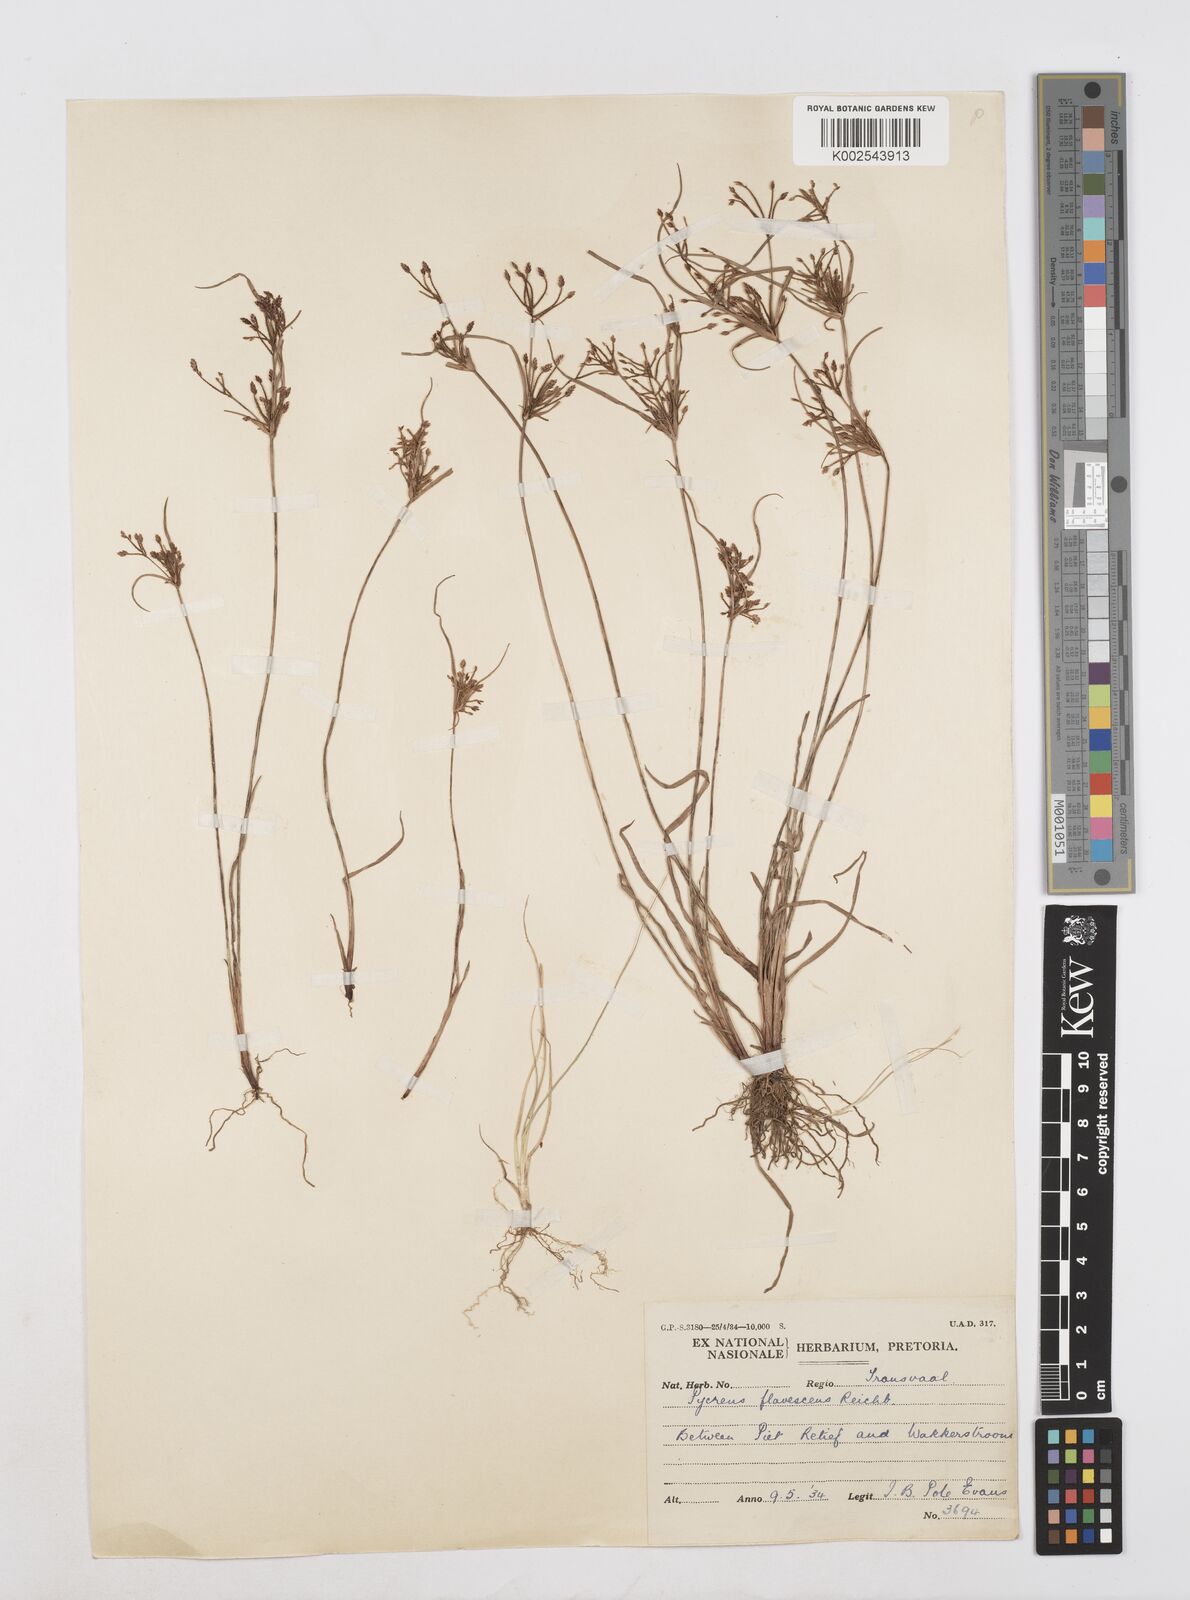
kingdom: Plantae
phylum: Tracheophyta
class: Liliopsida
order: Poales
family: Cyperaceae
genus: Cyperus
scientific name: Cyperus flavescens
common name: Yellow galingale
